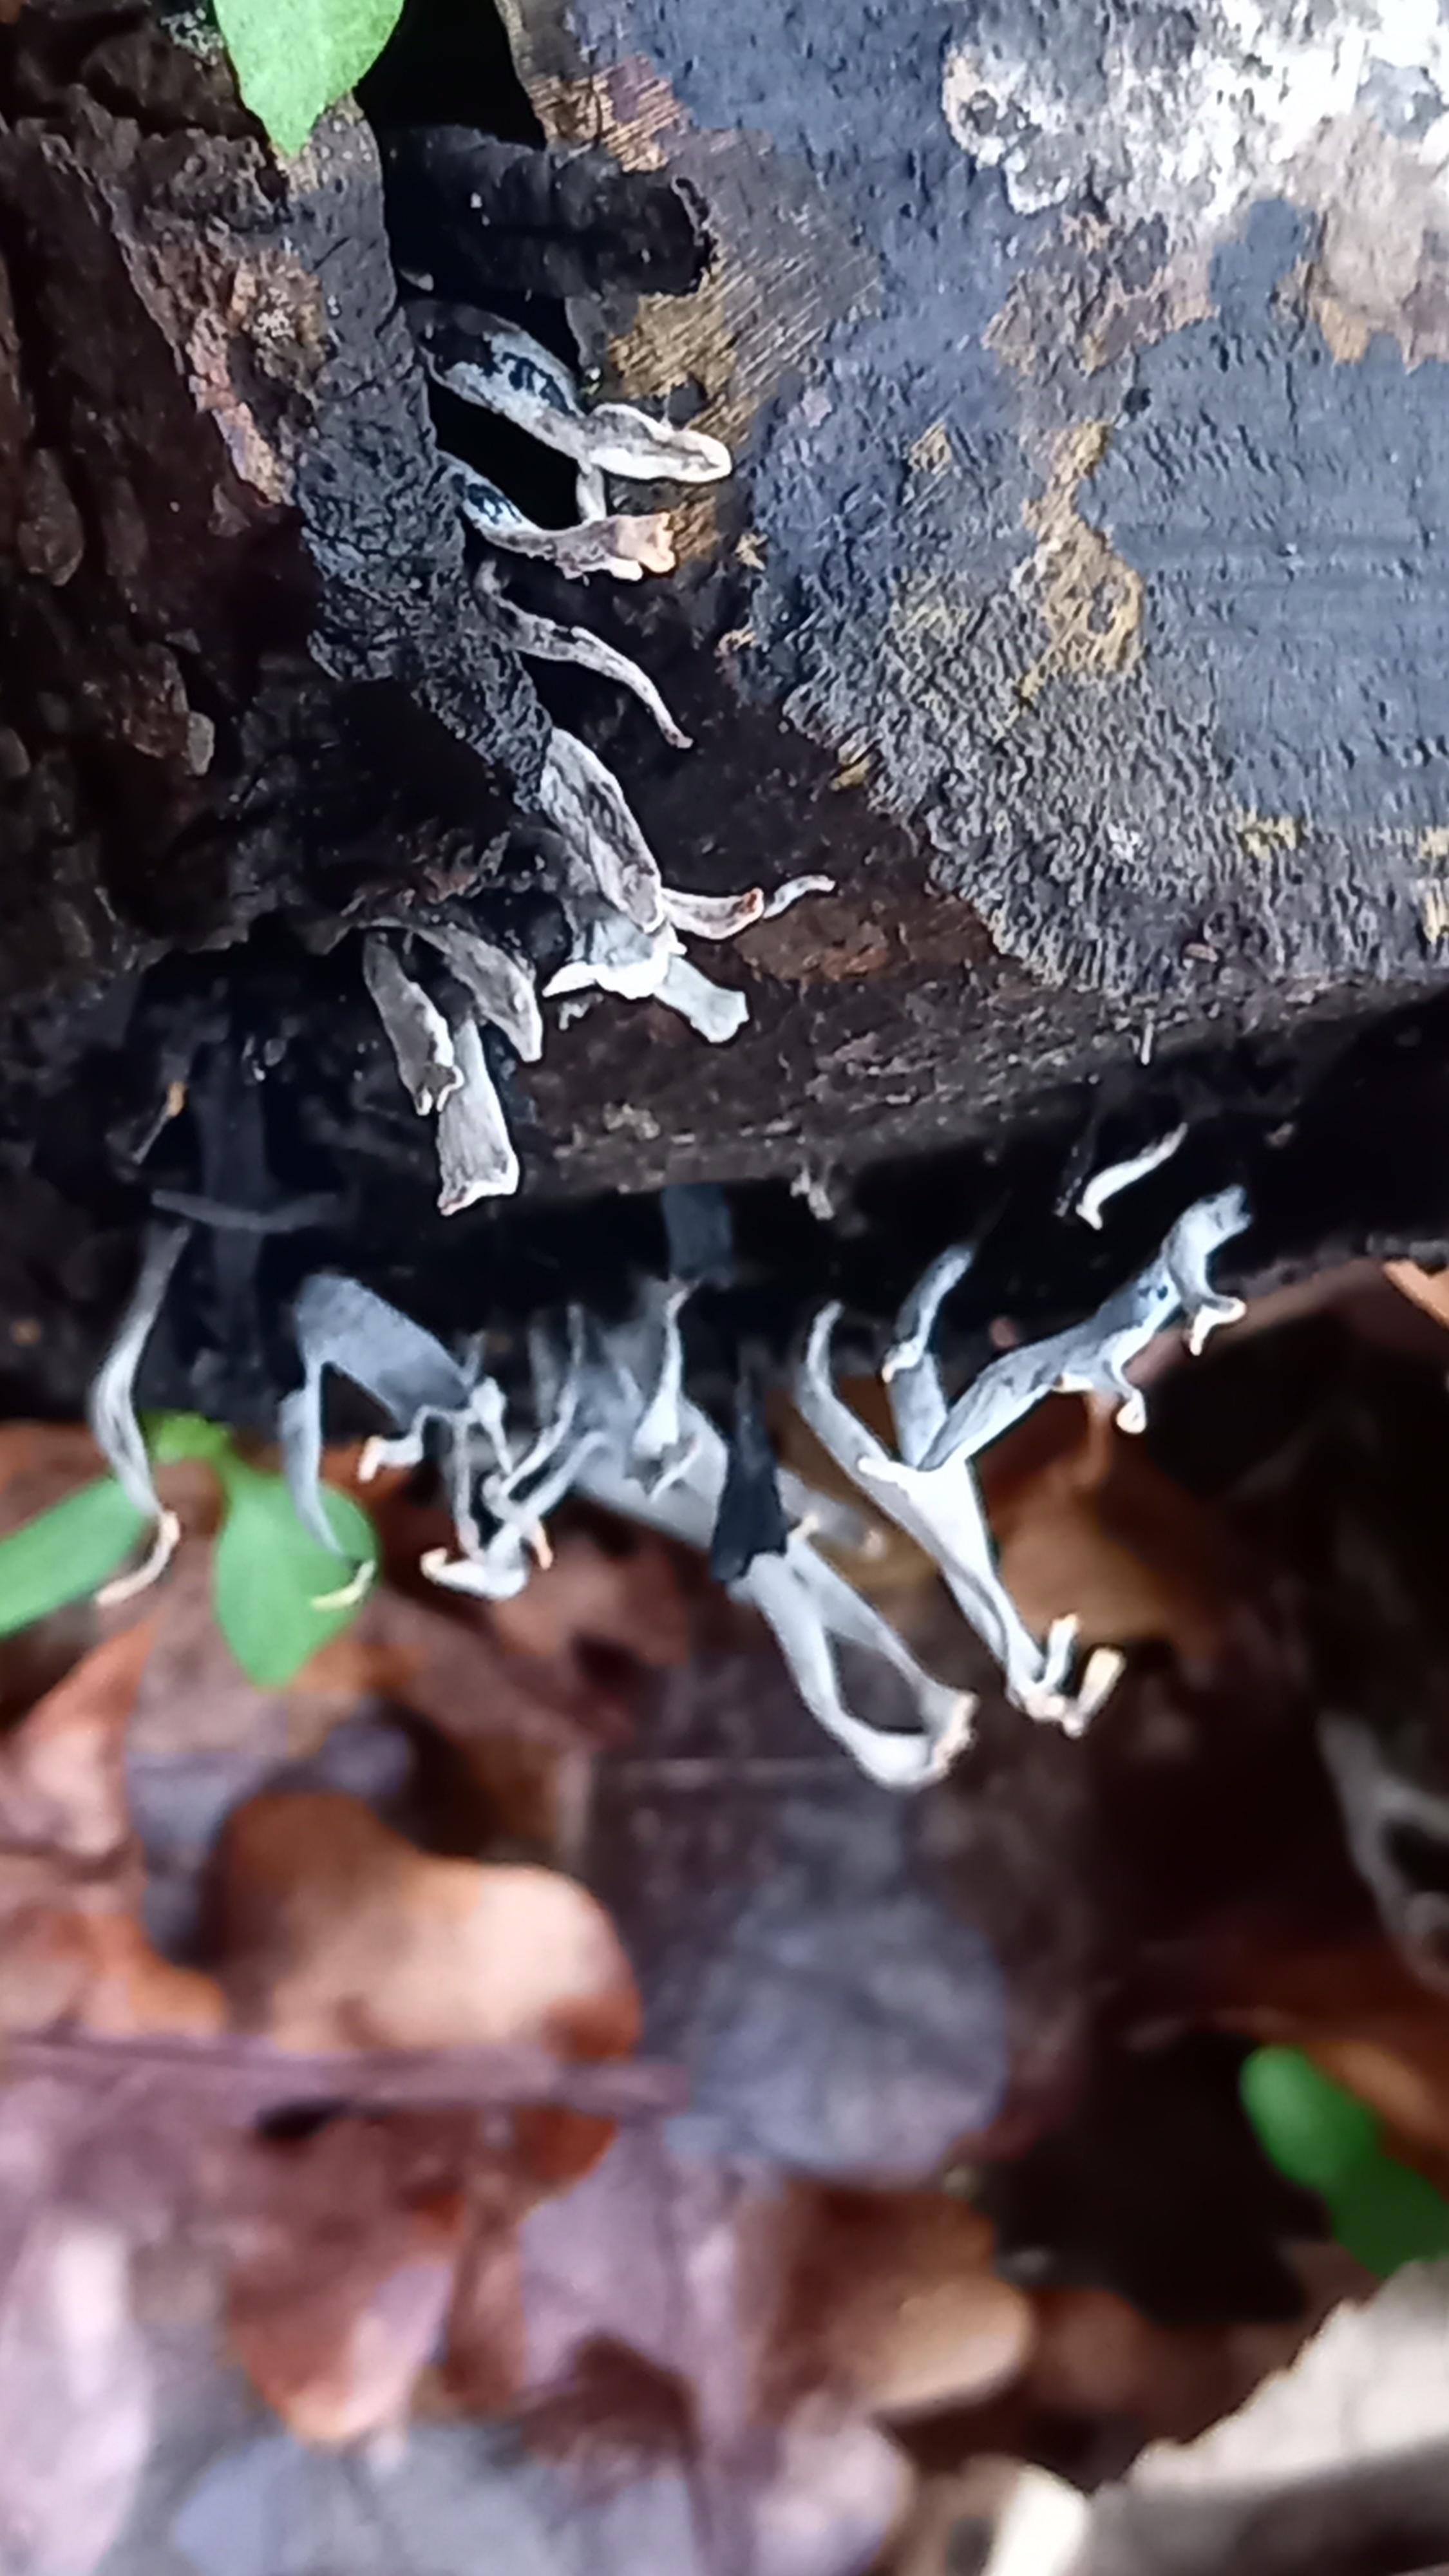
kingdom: Fungi
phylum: Ascomycota
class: Sordariomycetes
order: Xylariales
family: Xylariaceae
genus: Xylaria
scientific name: Xylaria hypoxylon
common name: grenet stødsvamp
